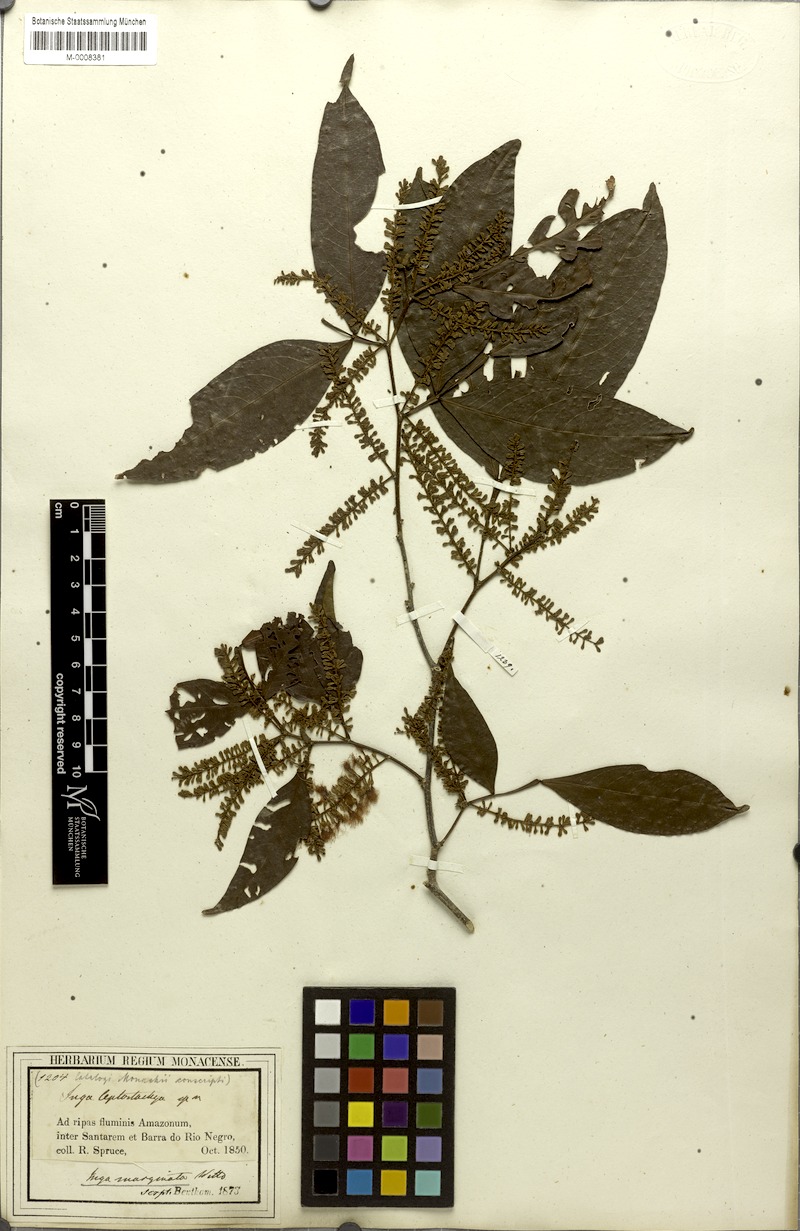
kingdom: Plantae
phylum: Tracheophyta
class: Magnoliopsida
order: Fabales
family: Fabaceae
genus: Inga
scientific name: Inga marginata
